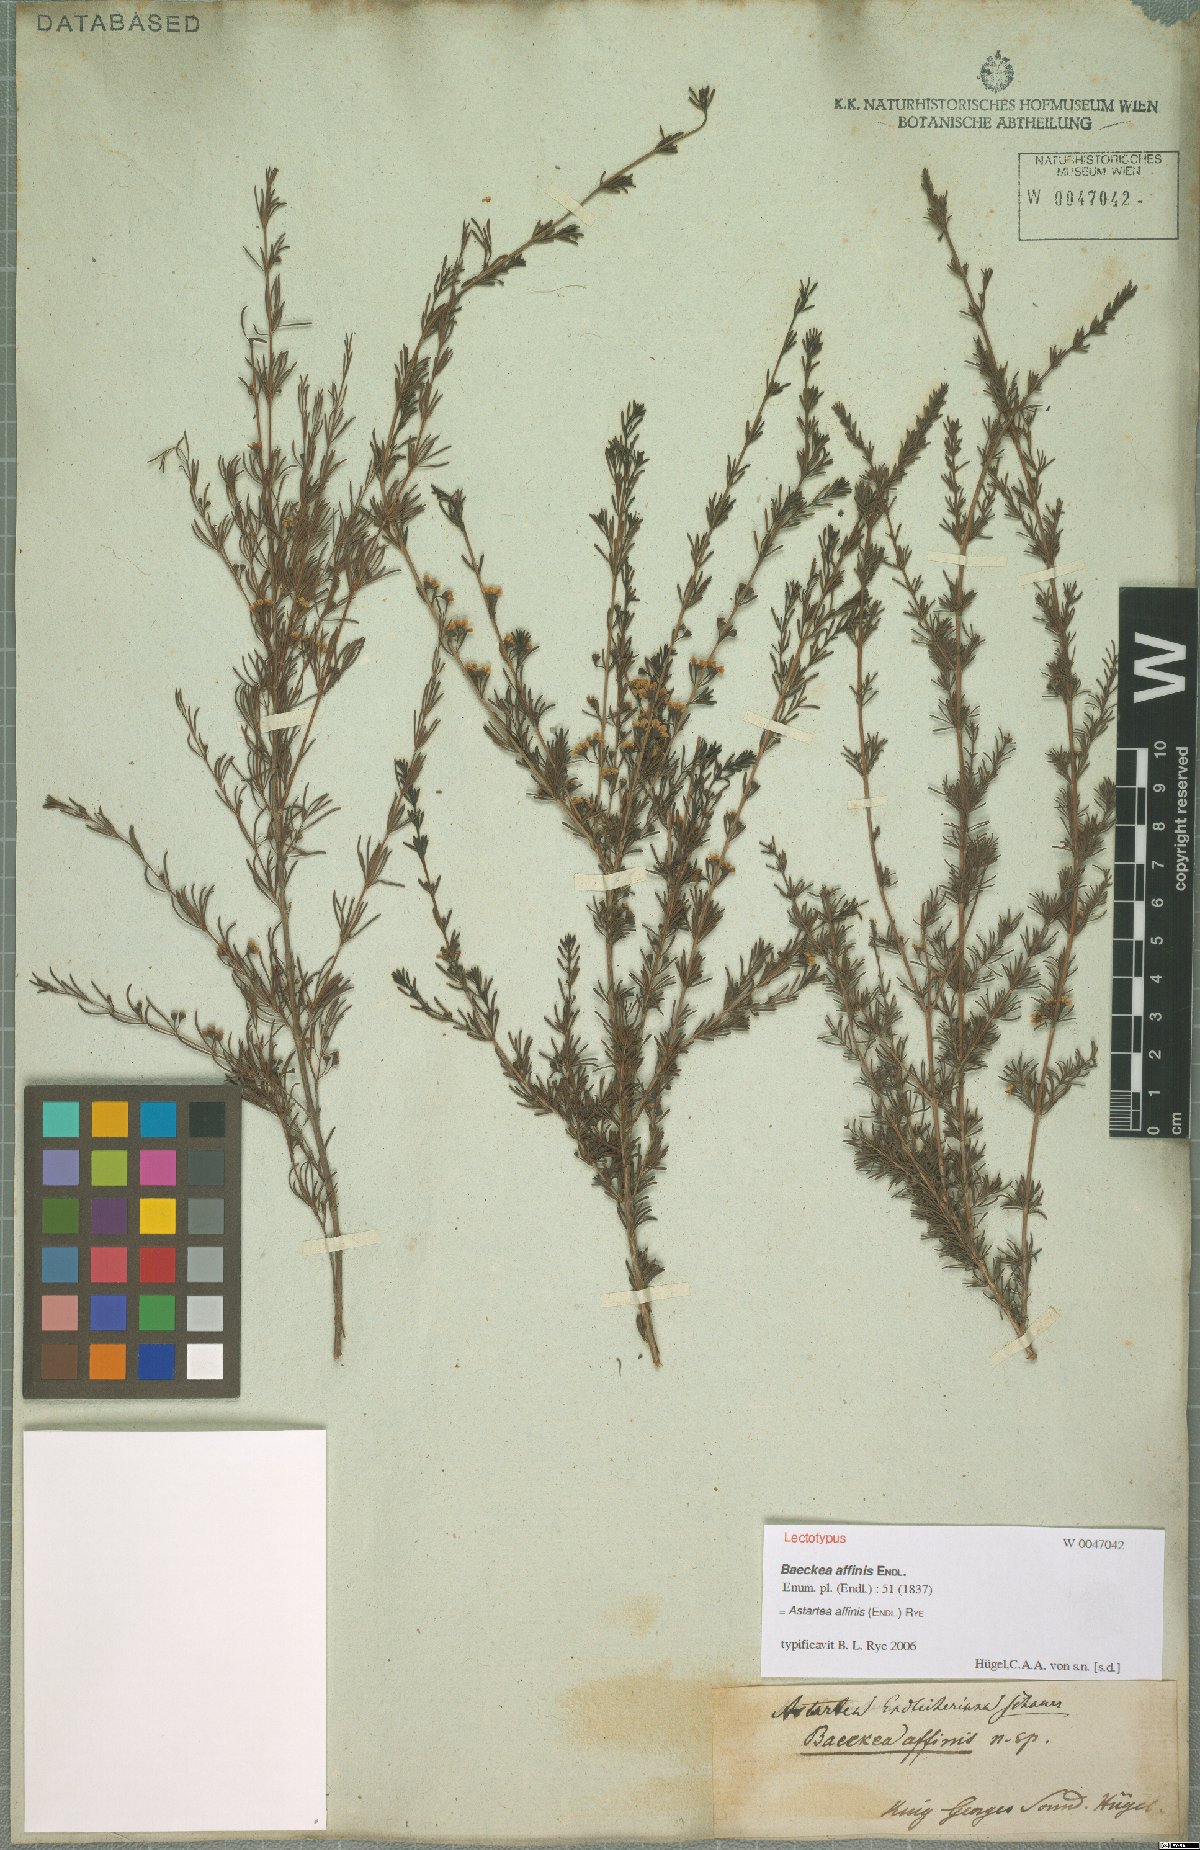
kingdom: Plantae
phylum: Tracheophyta
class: Magnoliopsida
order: Myrtales
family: Myrtaceae
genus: Astartea
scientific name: Astartea affinis
